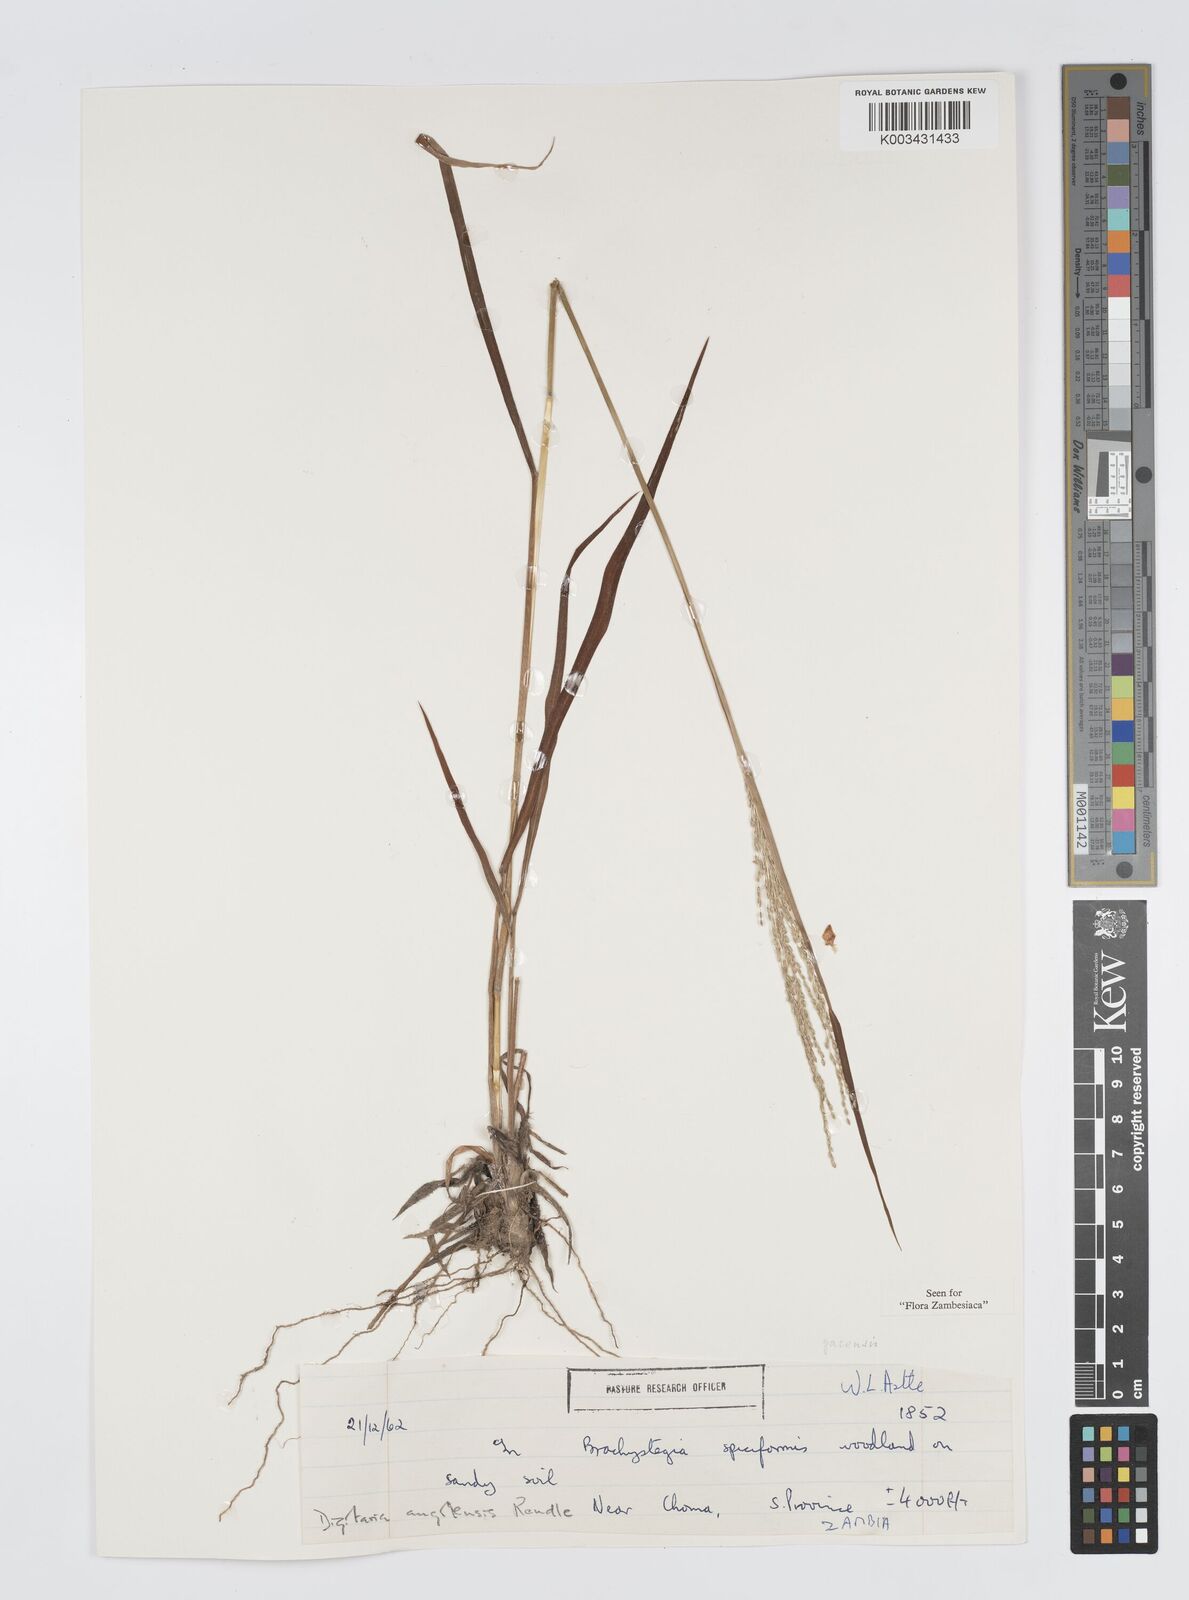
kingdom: Plantae
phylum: Tracheophyta
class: Liliopsida
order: Poales
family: Poaceae
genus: Digitaria
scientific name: Digitaria gazensis
